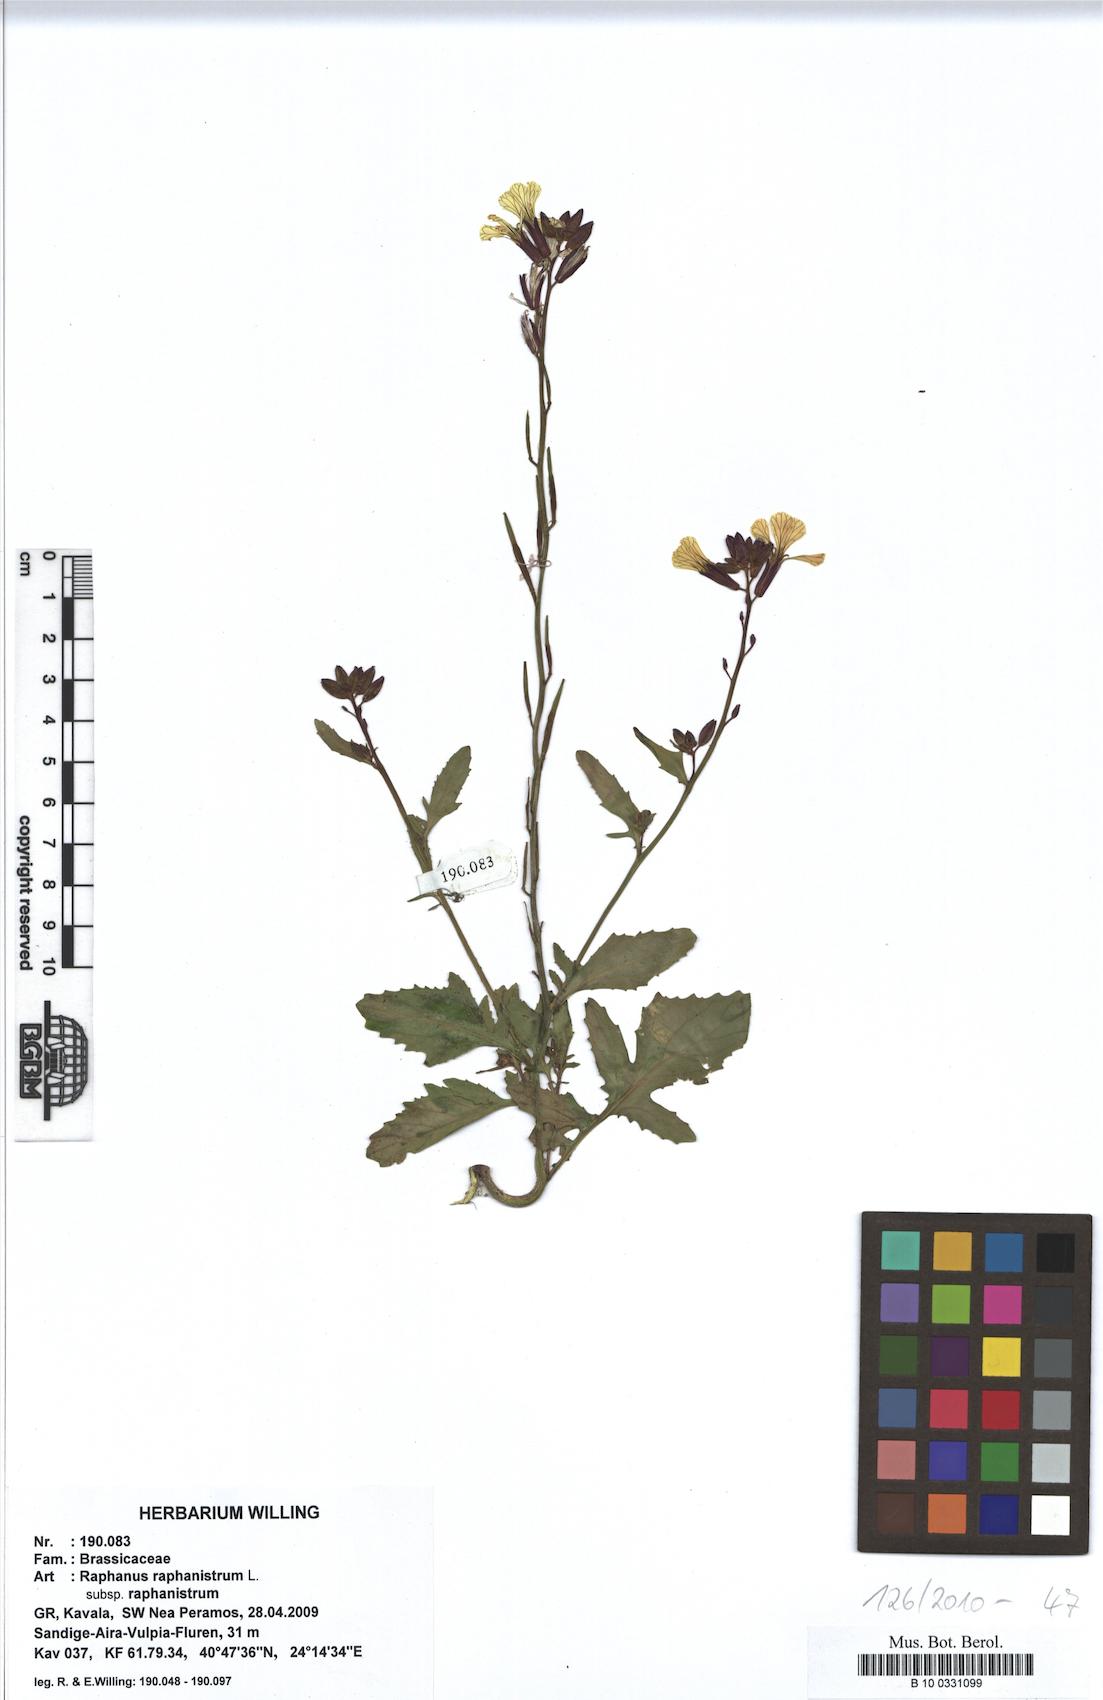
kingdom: Plantae
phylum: Tracheophyta
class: Magnoliopsida
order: Brassicales
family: Brassicaceae
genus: Raphanus
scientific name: Raphanus raphanistrum
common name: Wild radish
